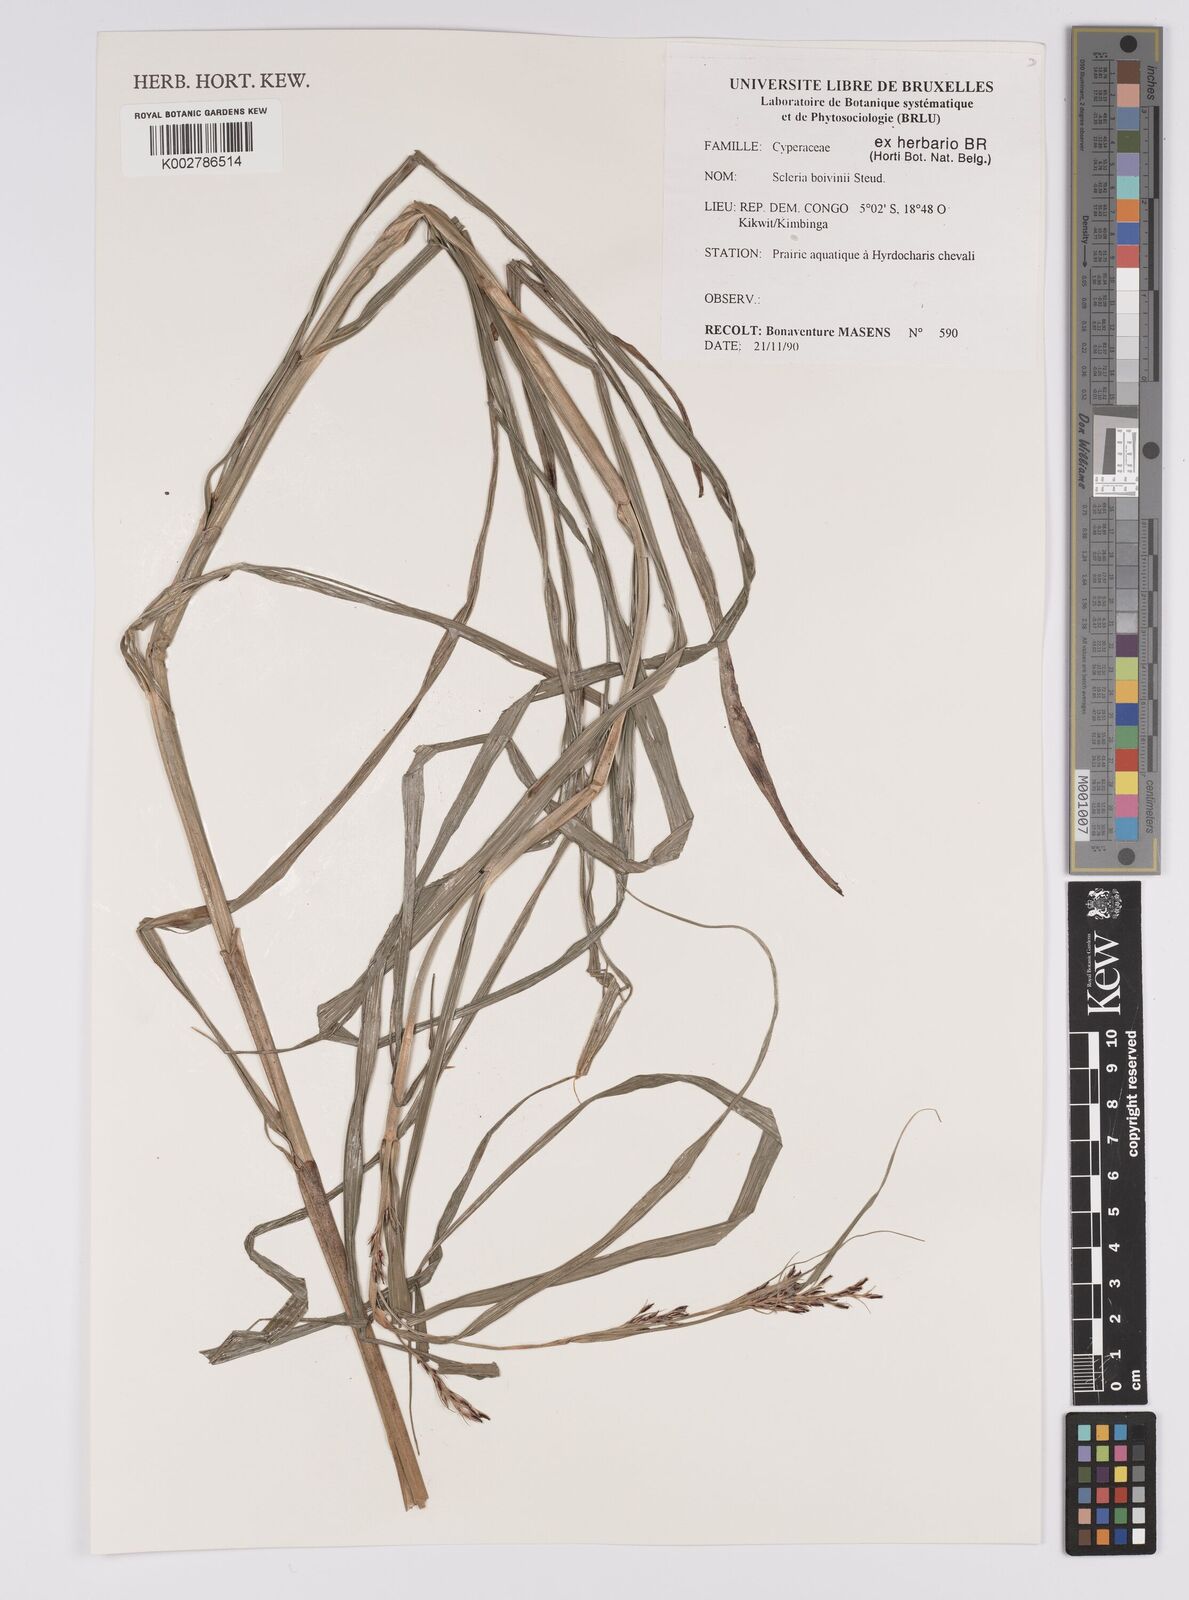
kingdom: Plantae
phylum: Tracheophyta
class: Liliopsida
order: Poales
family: Cyperaceae
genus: Scleria
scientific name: Scleria boivinii
